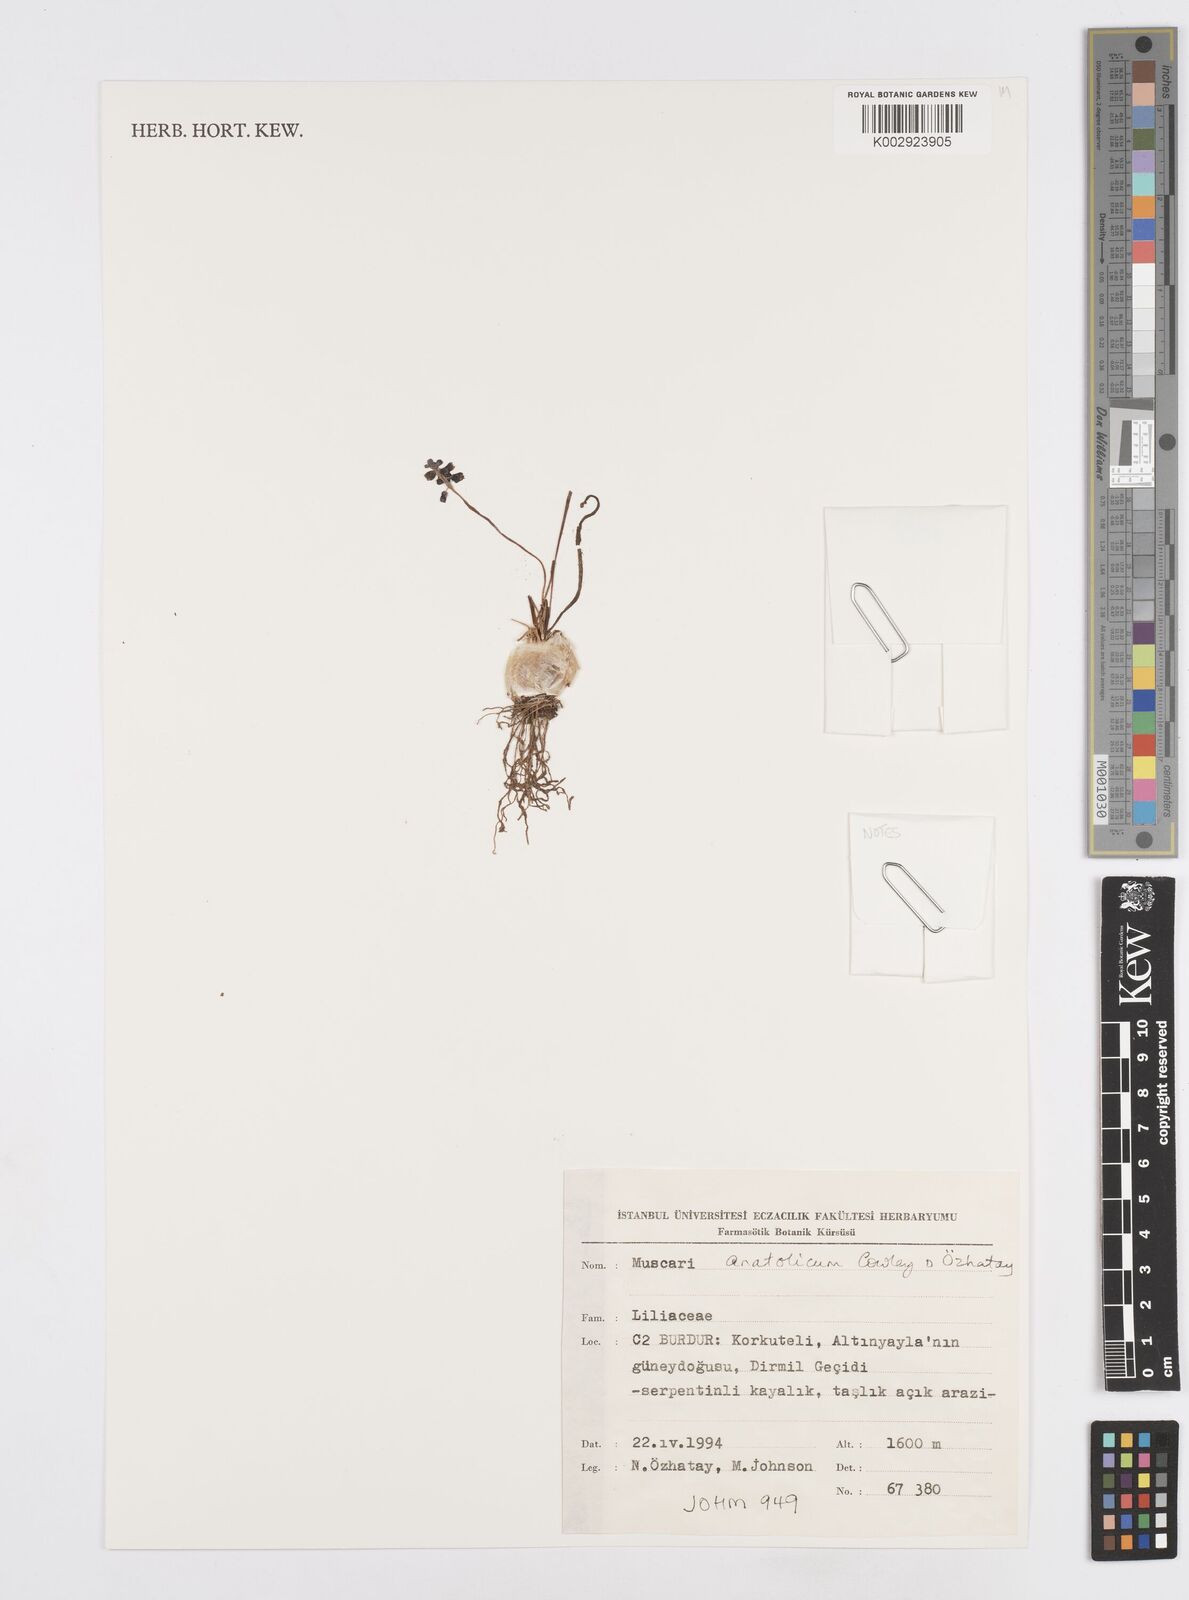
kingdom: Plantae
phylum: Tracheophyta
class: Liliopsida
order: Asparagales
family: Asparagaceae
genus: Muscari
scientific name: Muscari anatolicum
